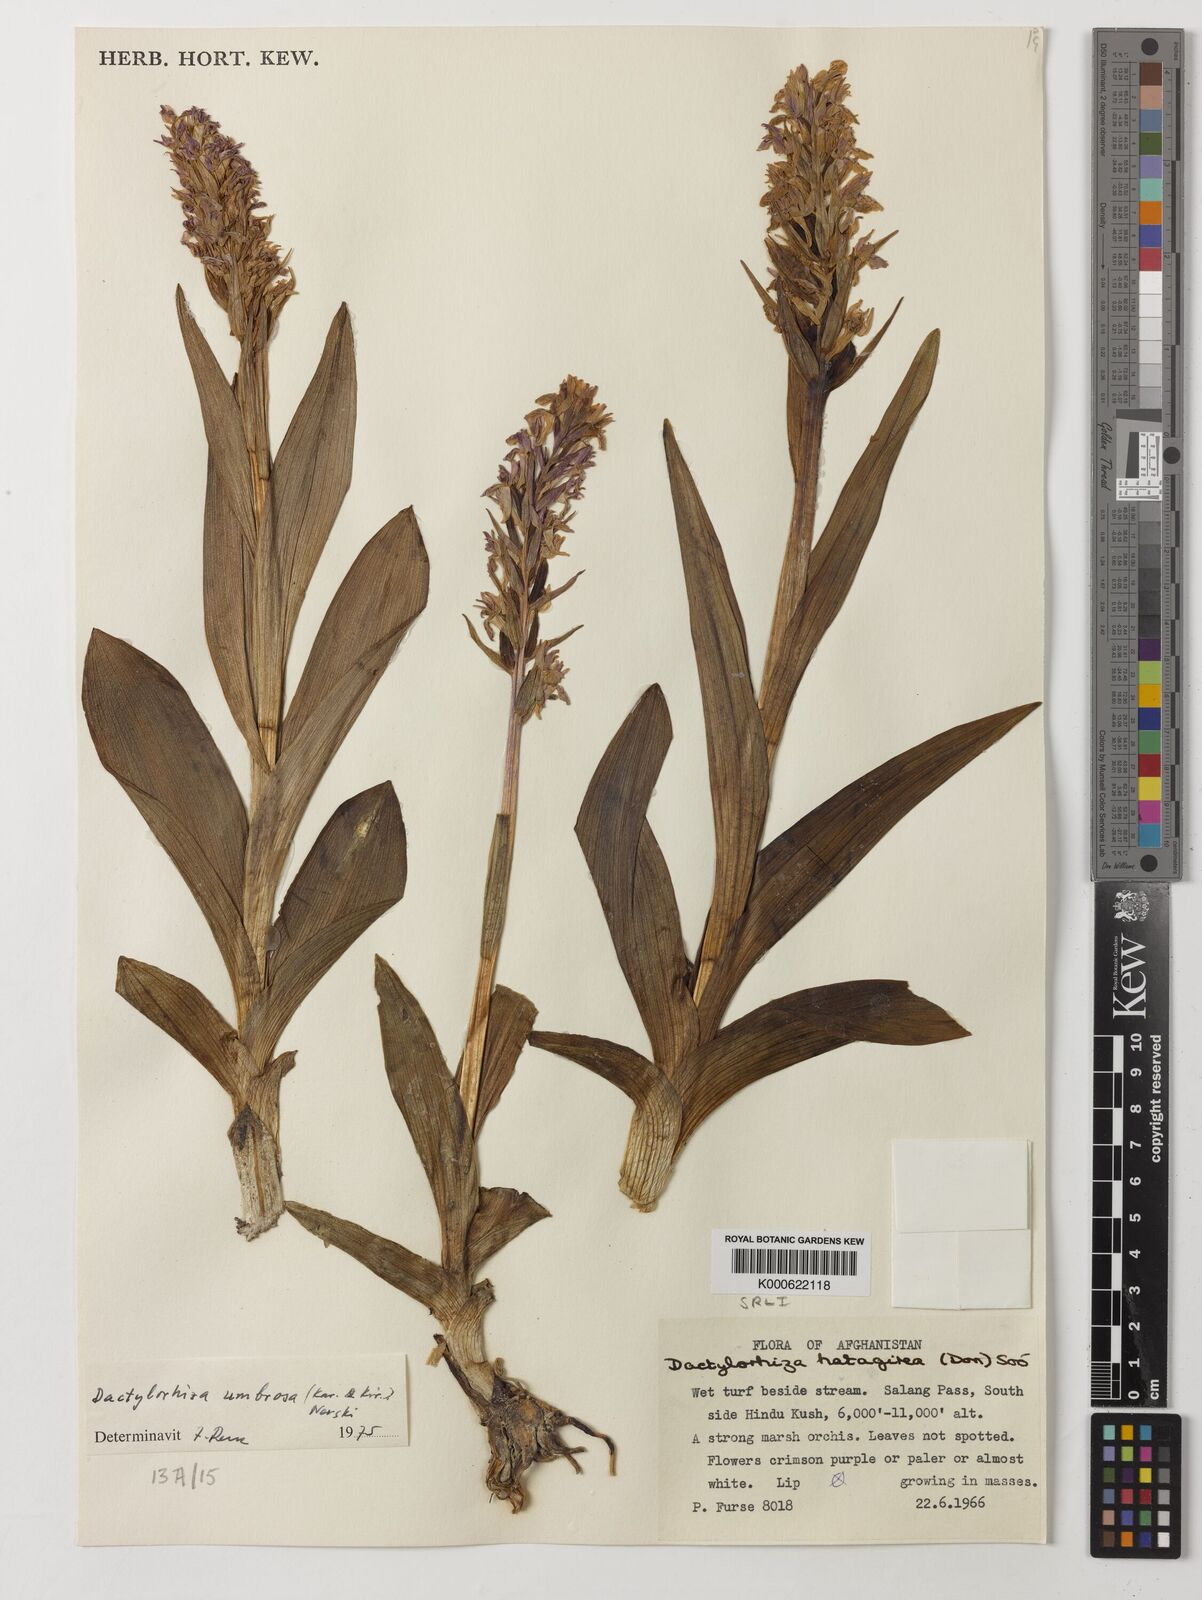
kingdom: Plantae
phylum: Tracheophyta
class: Liliopsida
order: Asparagales
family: Orchidaceae
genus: Dactylorhiza
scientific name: Dactylorhiza
